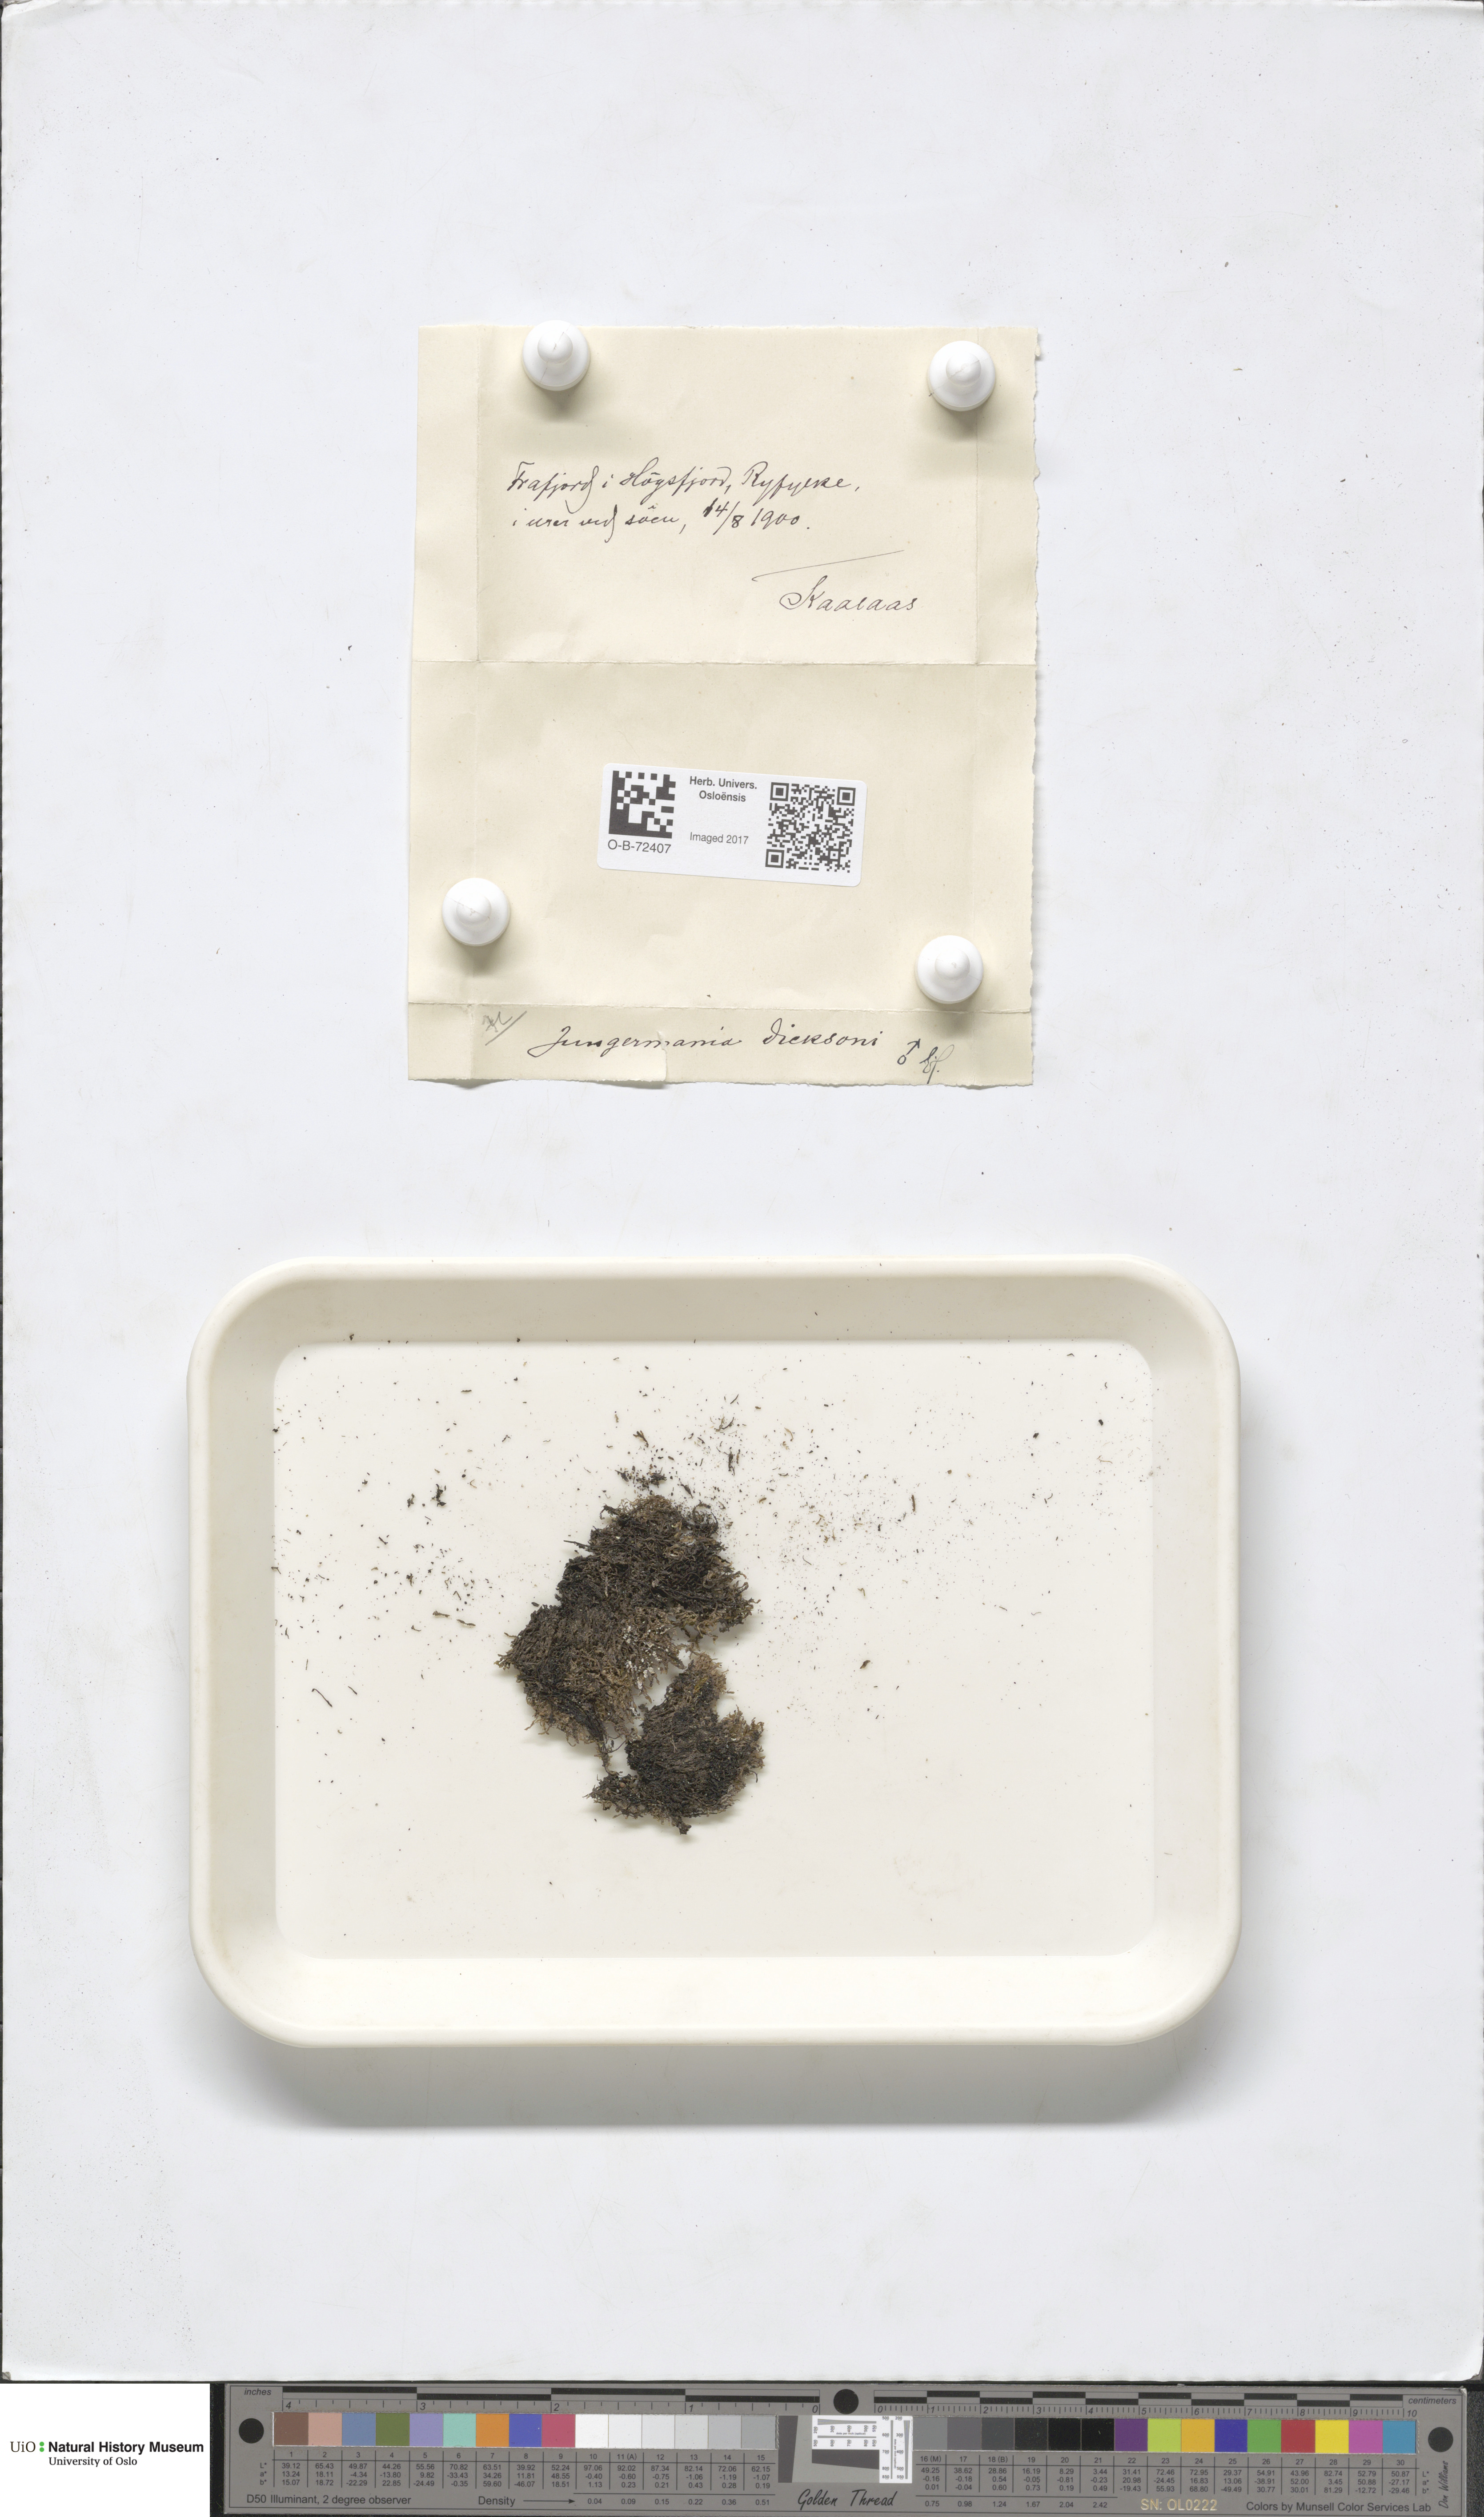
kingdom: Plantae
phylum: Marchantiophyta
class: Jungermanniopsida
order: Jungermanniales
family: Scapaniaceae
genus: Douinia
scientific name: Douinia ovata
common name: Waxy earwort
